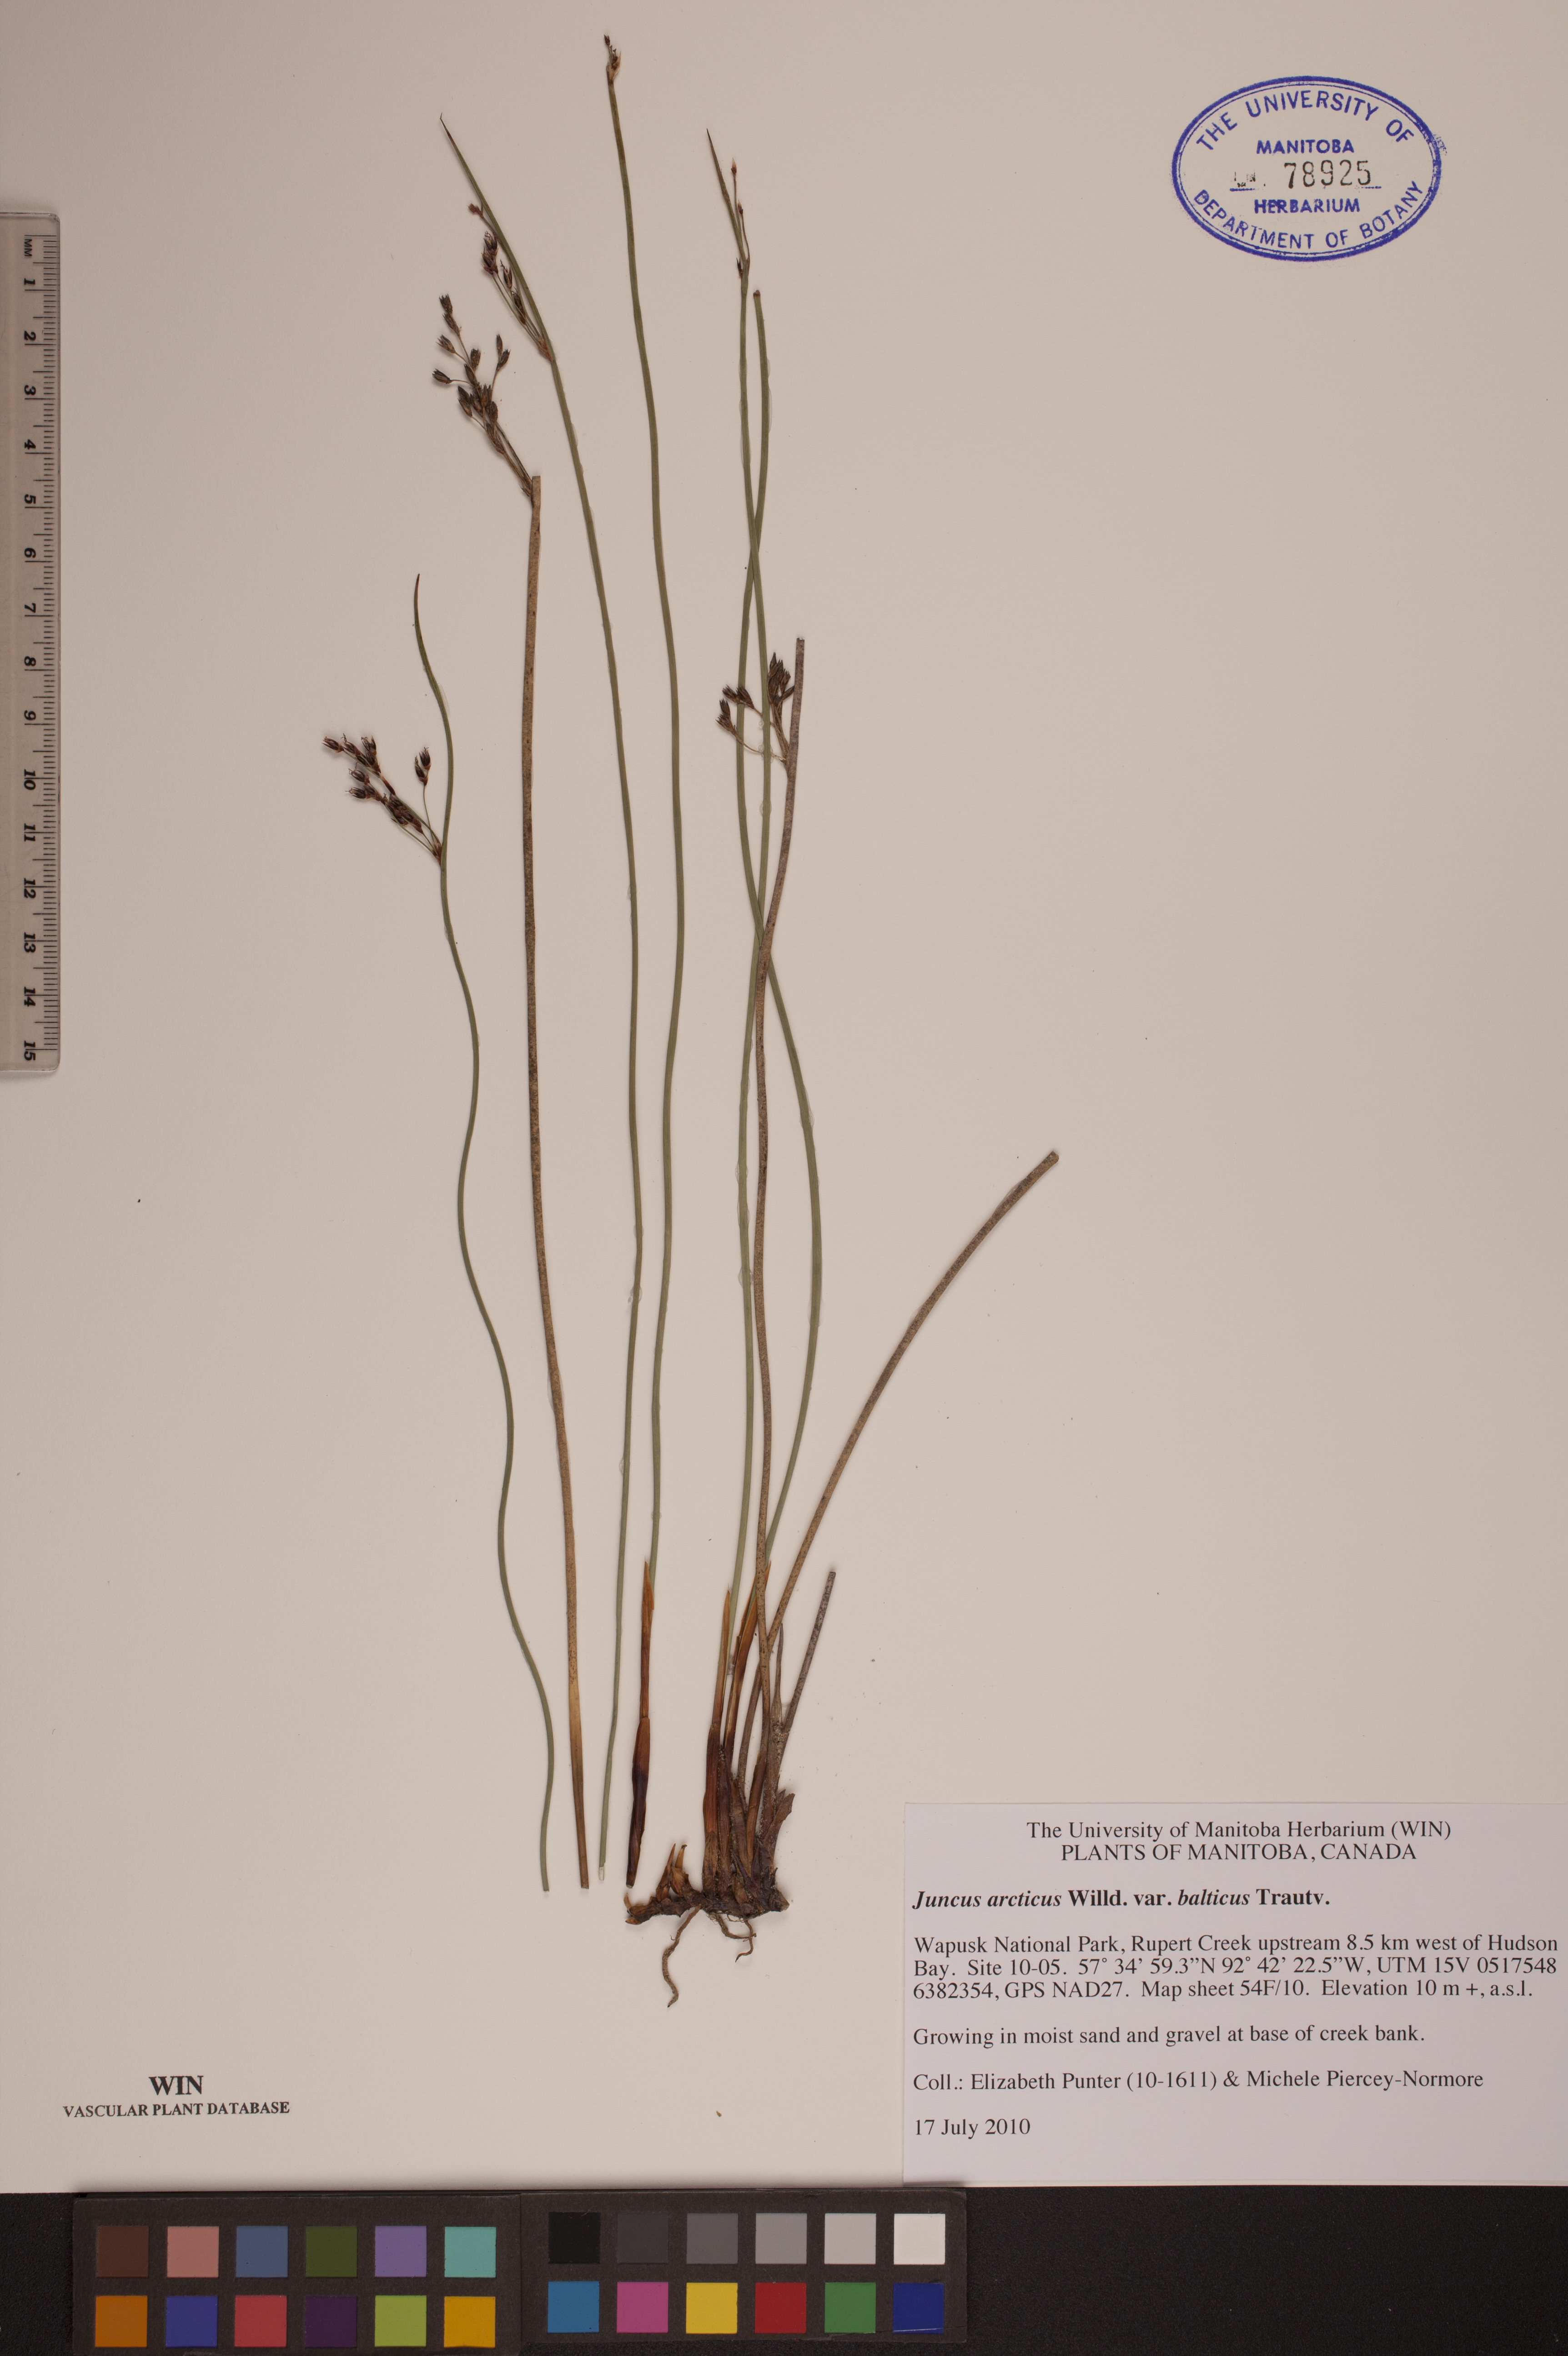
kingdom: Plantae
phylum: Tracheophyta
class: Liliopsida
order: Poales
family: Juncaceae
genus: Juncus
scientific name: Juncus balticus
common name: Baltic rush
